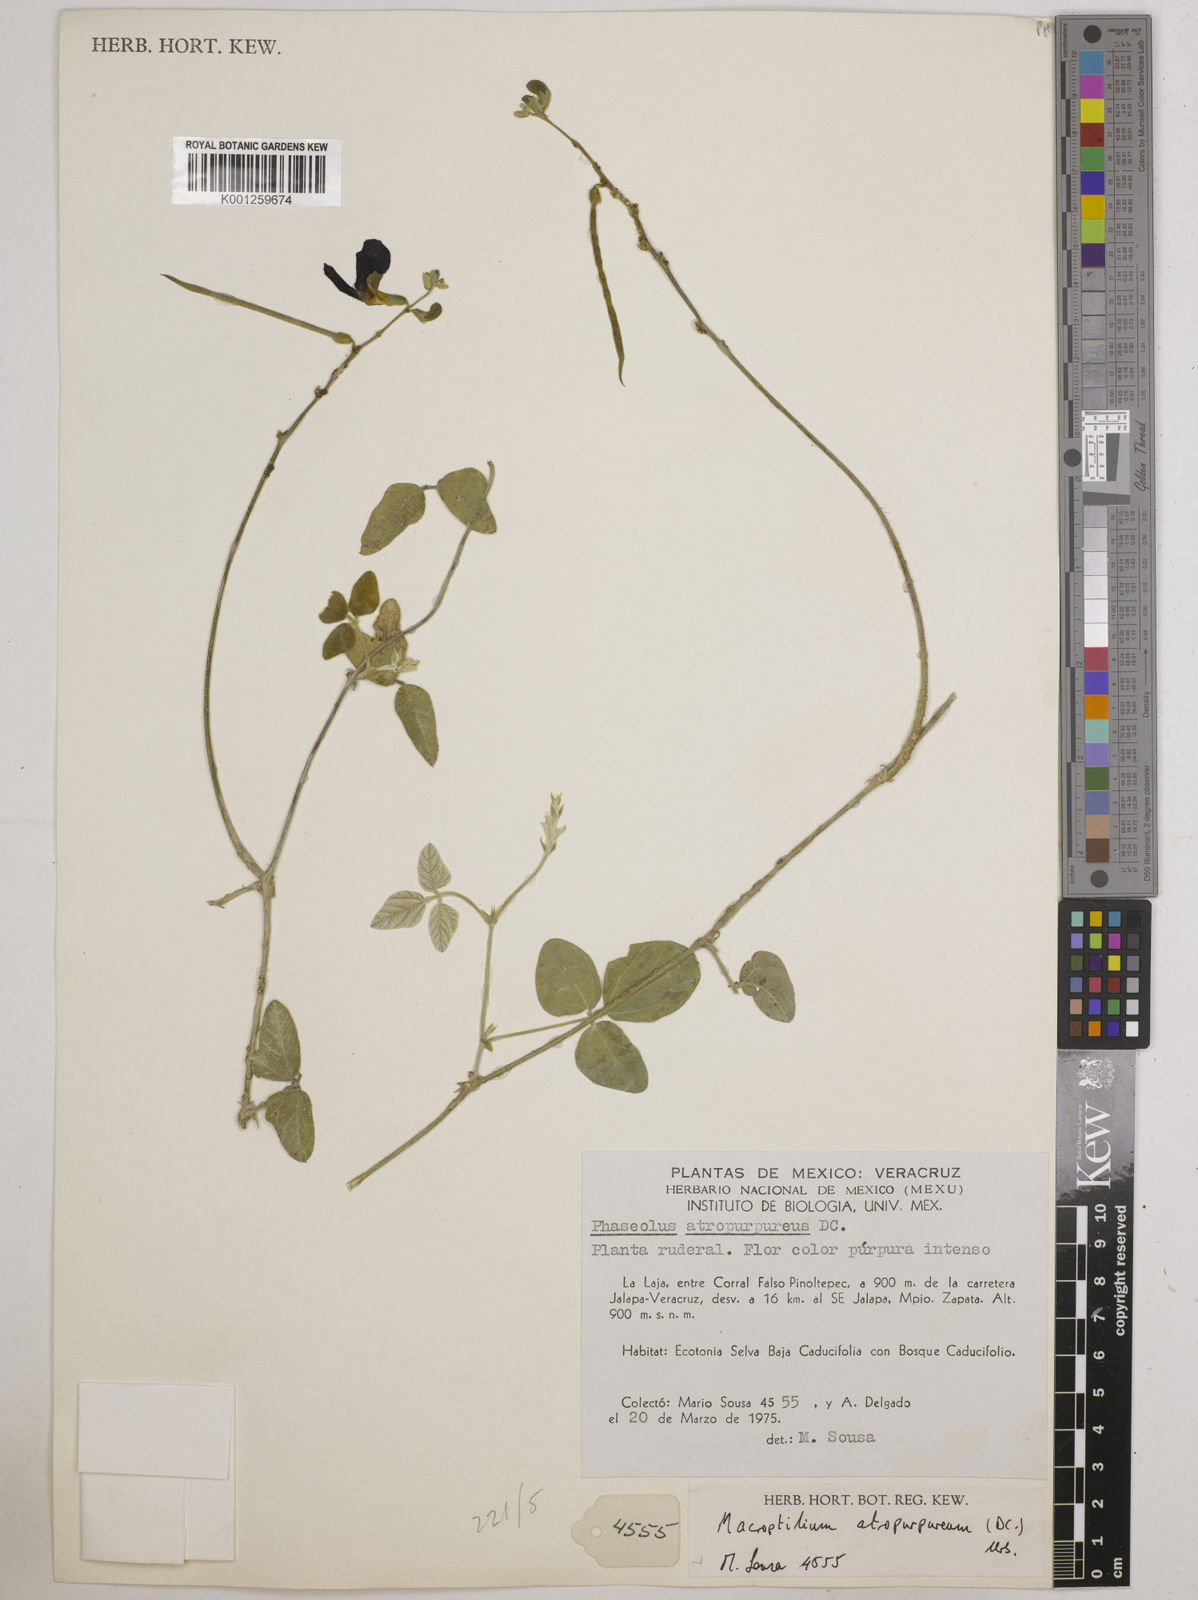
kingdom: Plantae
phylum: Tracheophyta
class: Magnoliopsida
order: Fabales
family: Fabaceae
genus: Macroptilium
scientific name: Macroptilium atropurpureum
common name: Purple bushbean
